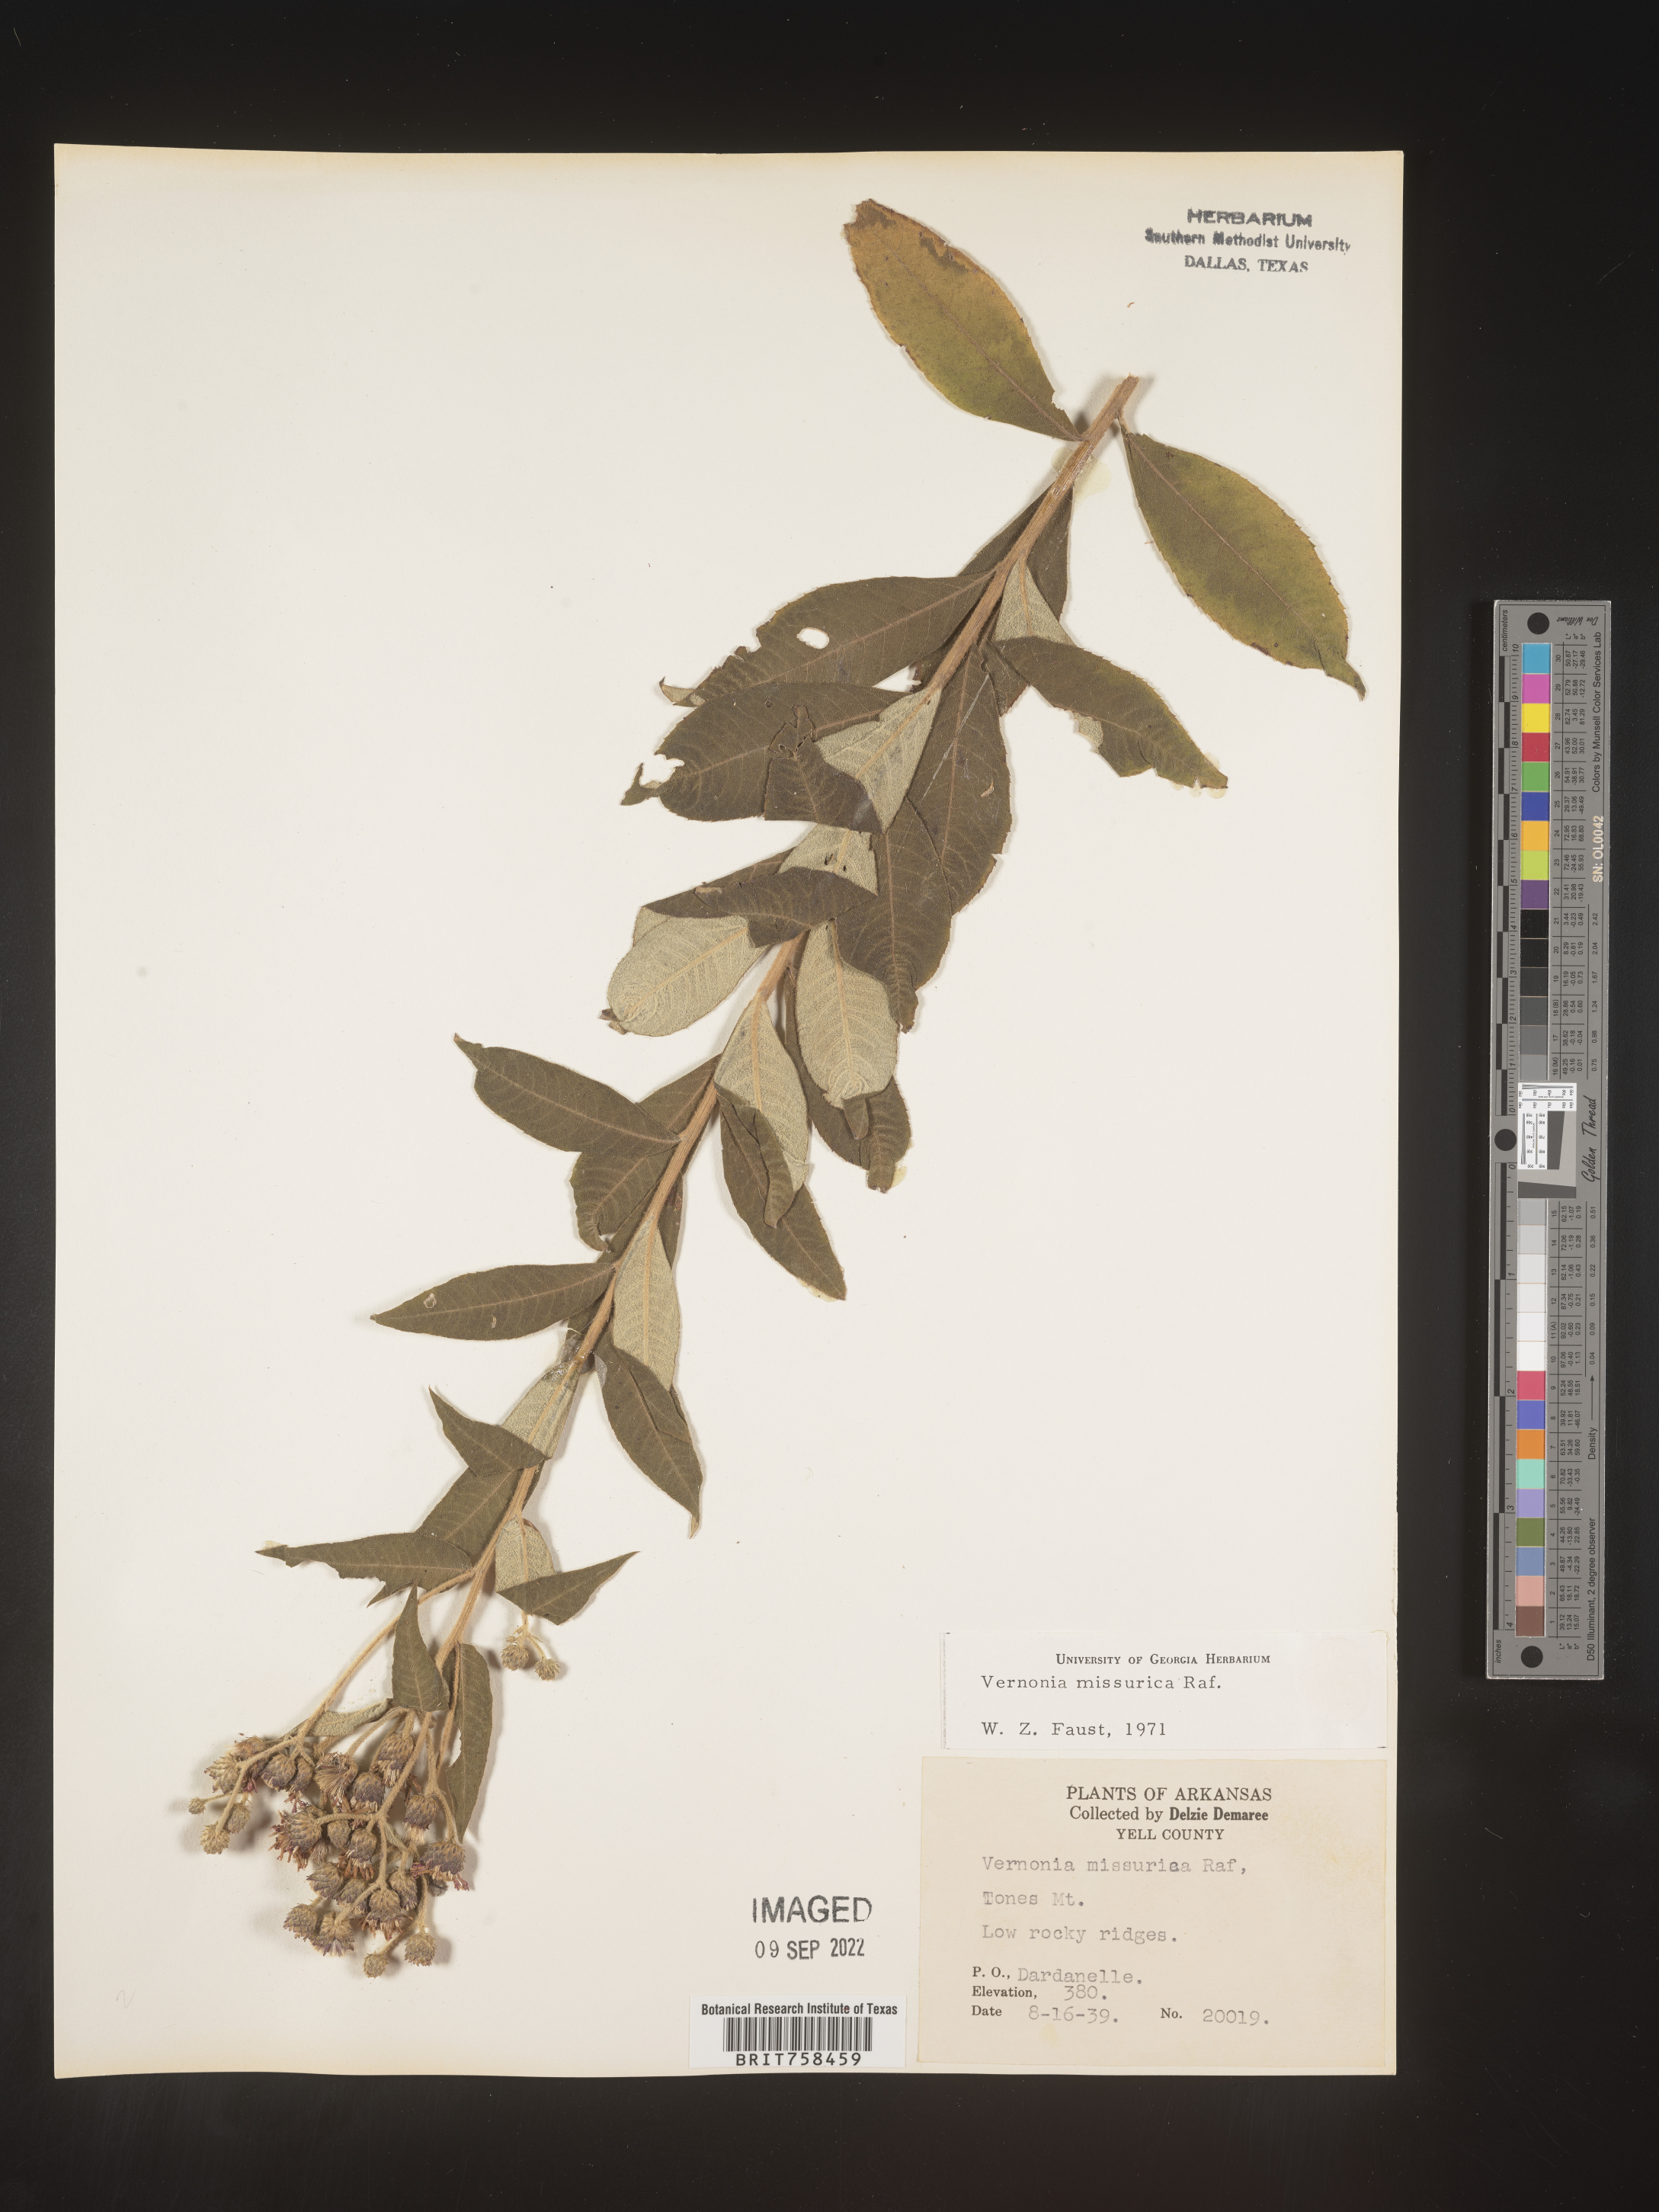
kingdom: Plantae
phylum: Tracheophyta
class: Magnoliopsida
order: Asterales
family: Asteraceae
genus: Vernonia
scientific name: Vernonia missurica
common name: Missouri ironweed
